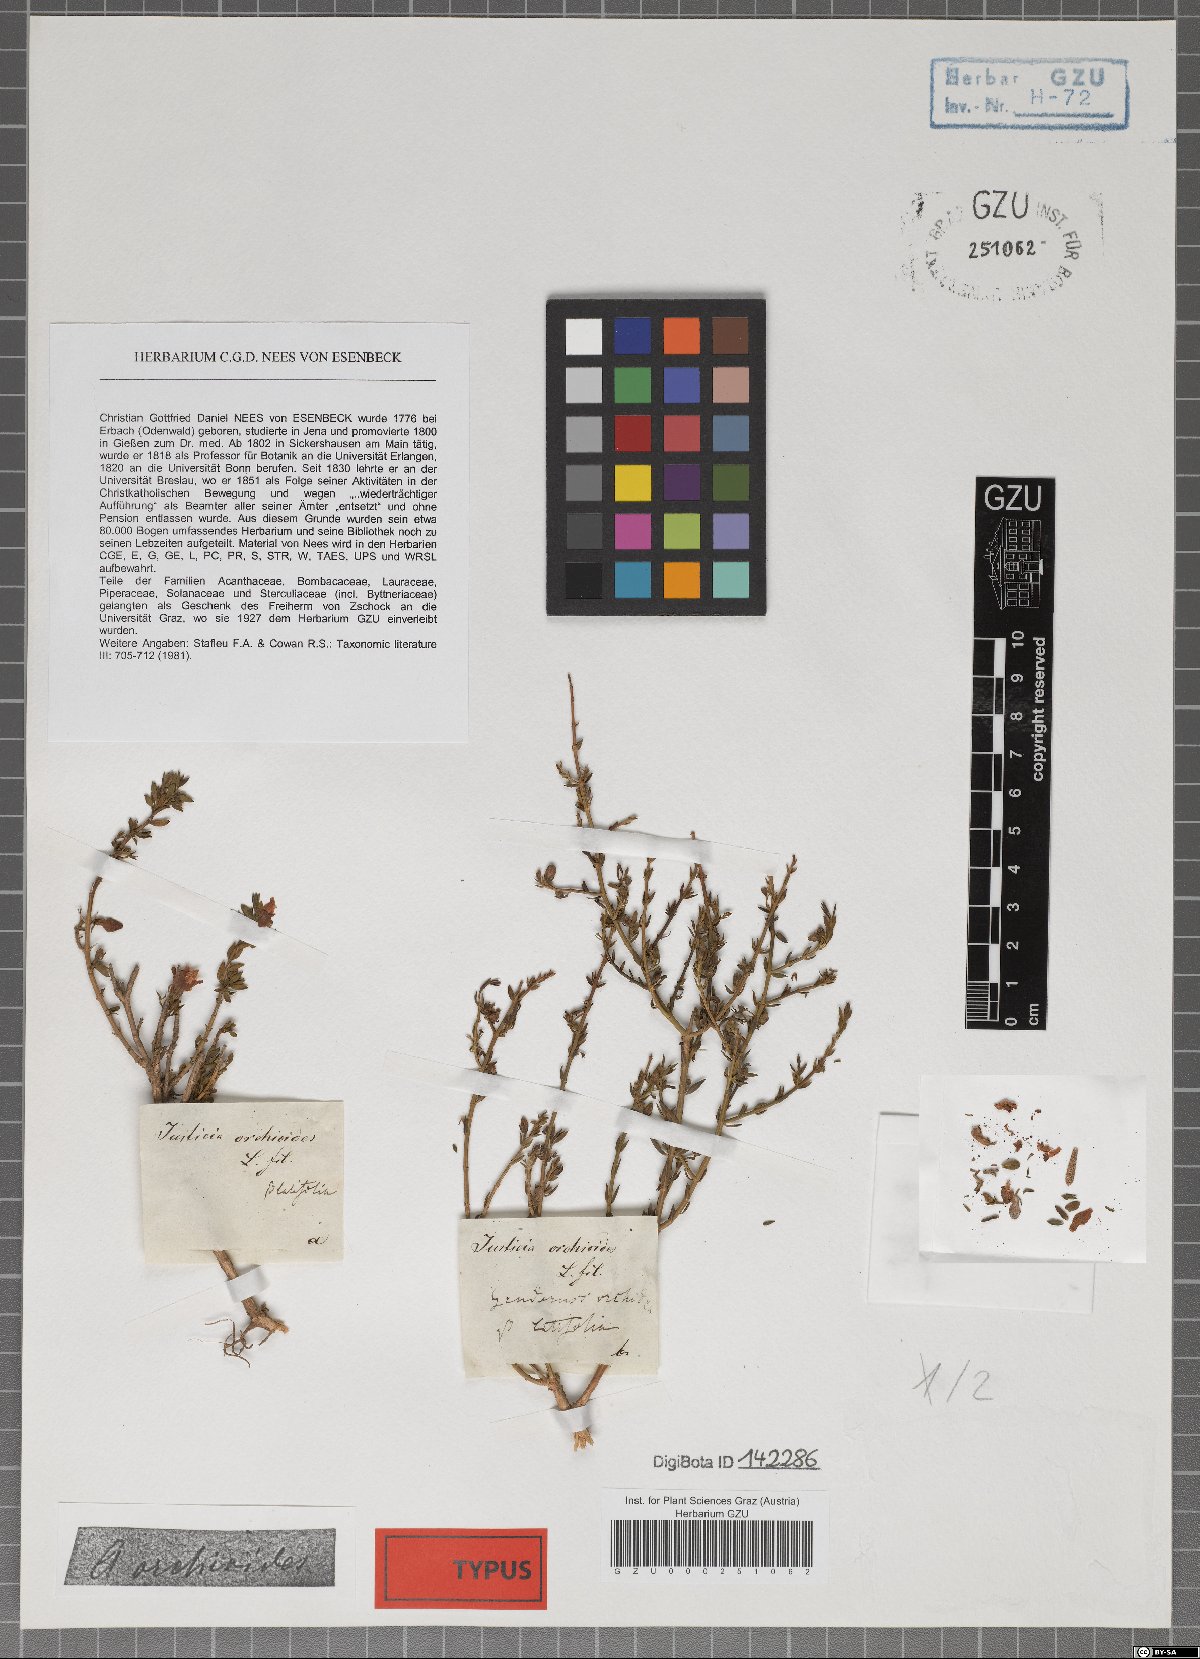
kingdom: Plantae
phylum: Tracheophyta
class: Magnoliopsida
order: Lamiales
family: Acanthaceae
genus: Justicia
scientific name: Justicia cuneata
